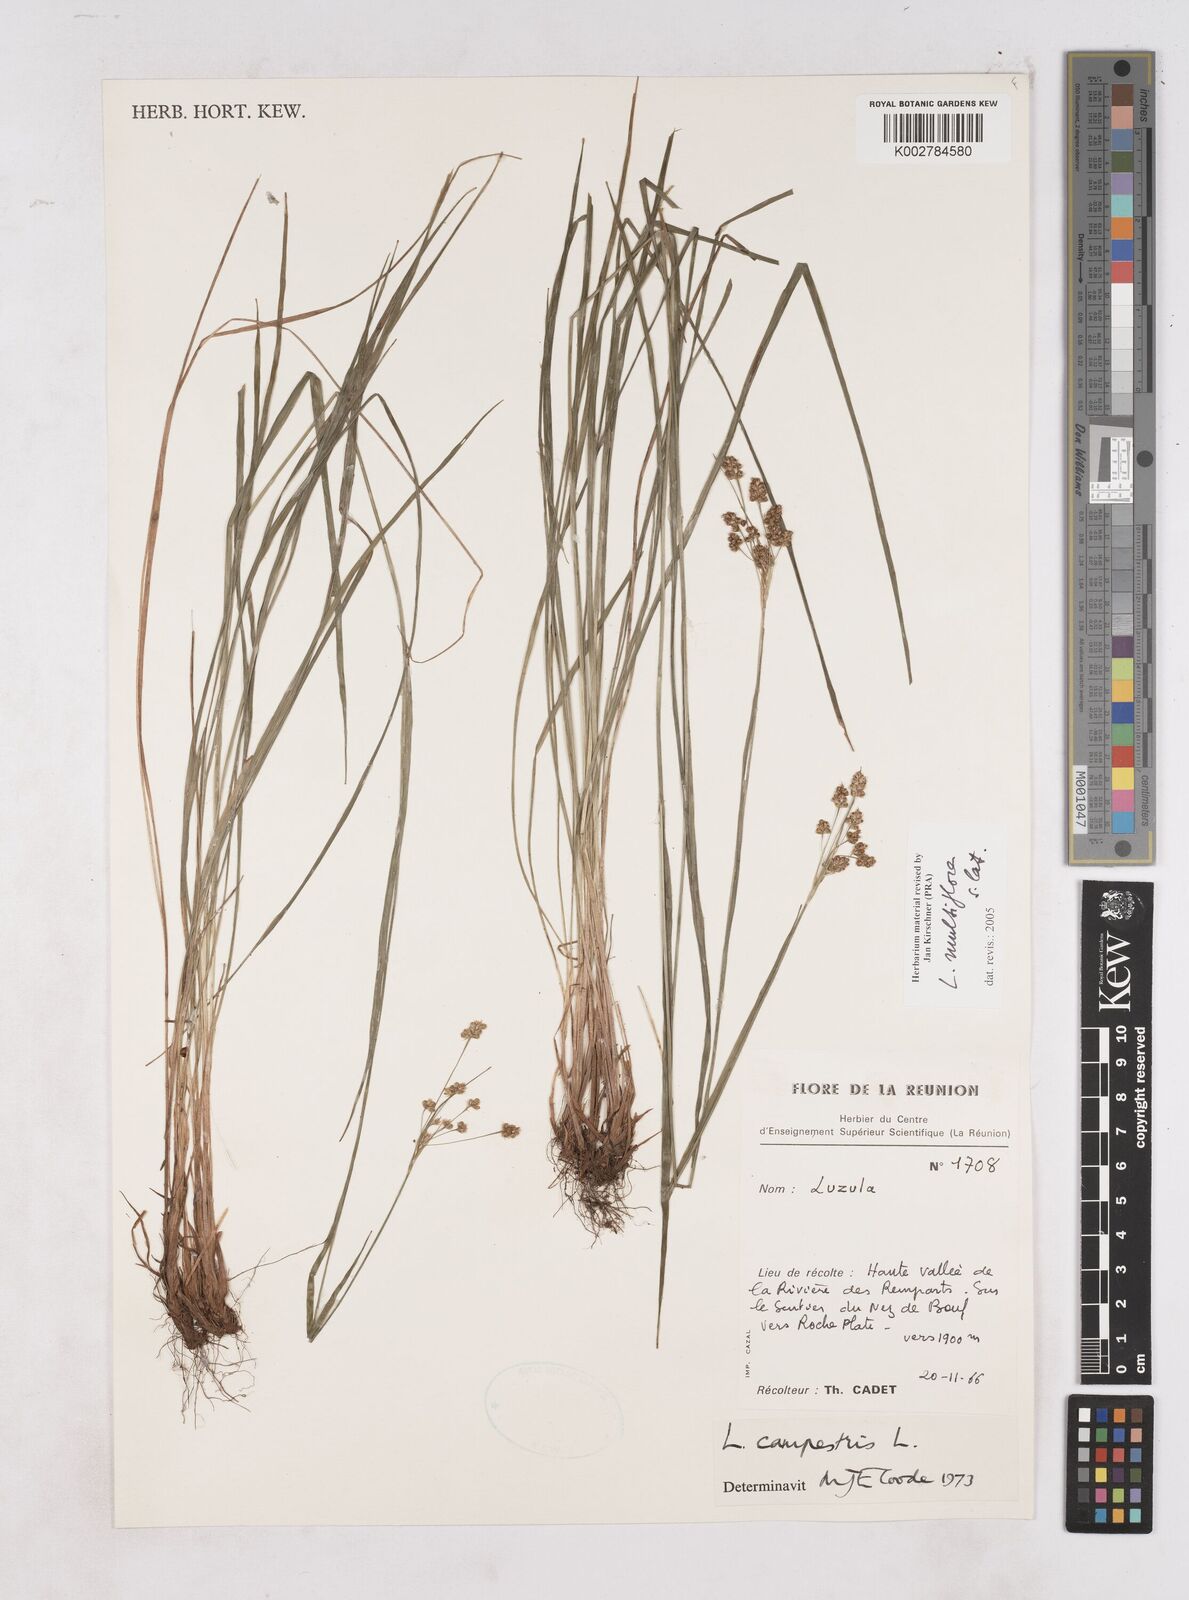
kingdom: Plantae
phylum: Tracheophyta
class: Liliopsida
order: Poales
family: Juncaceae
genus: Luzula
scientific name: Luzula multiflora
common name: Heath wood-rush
